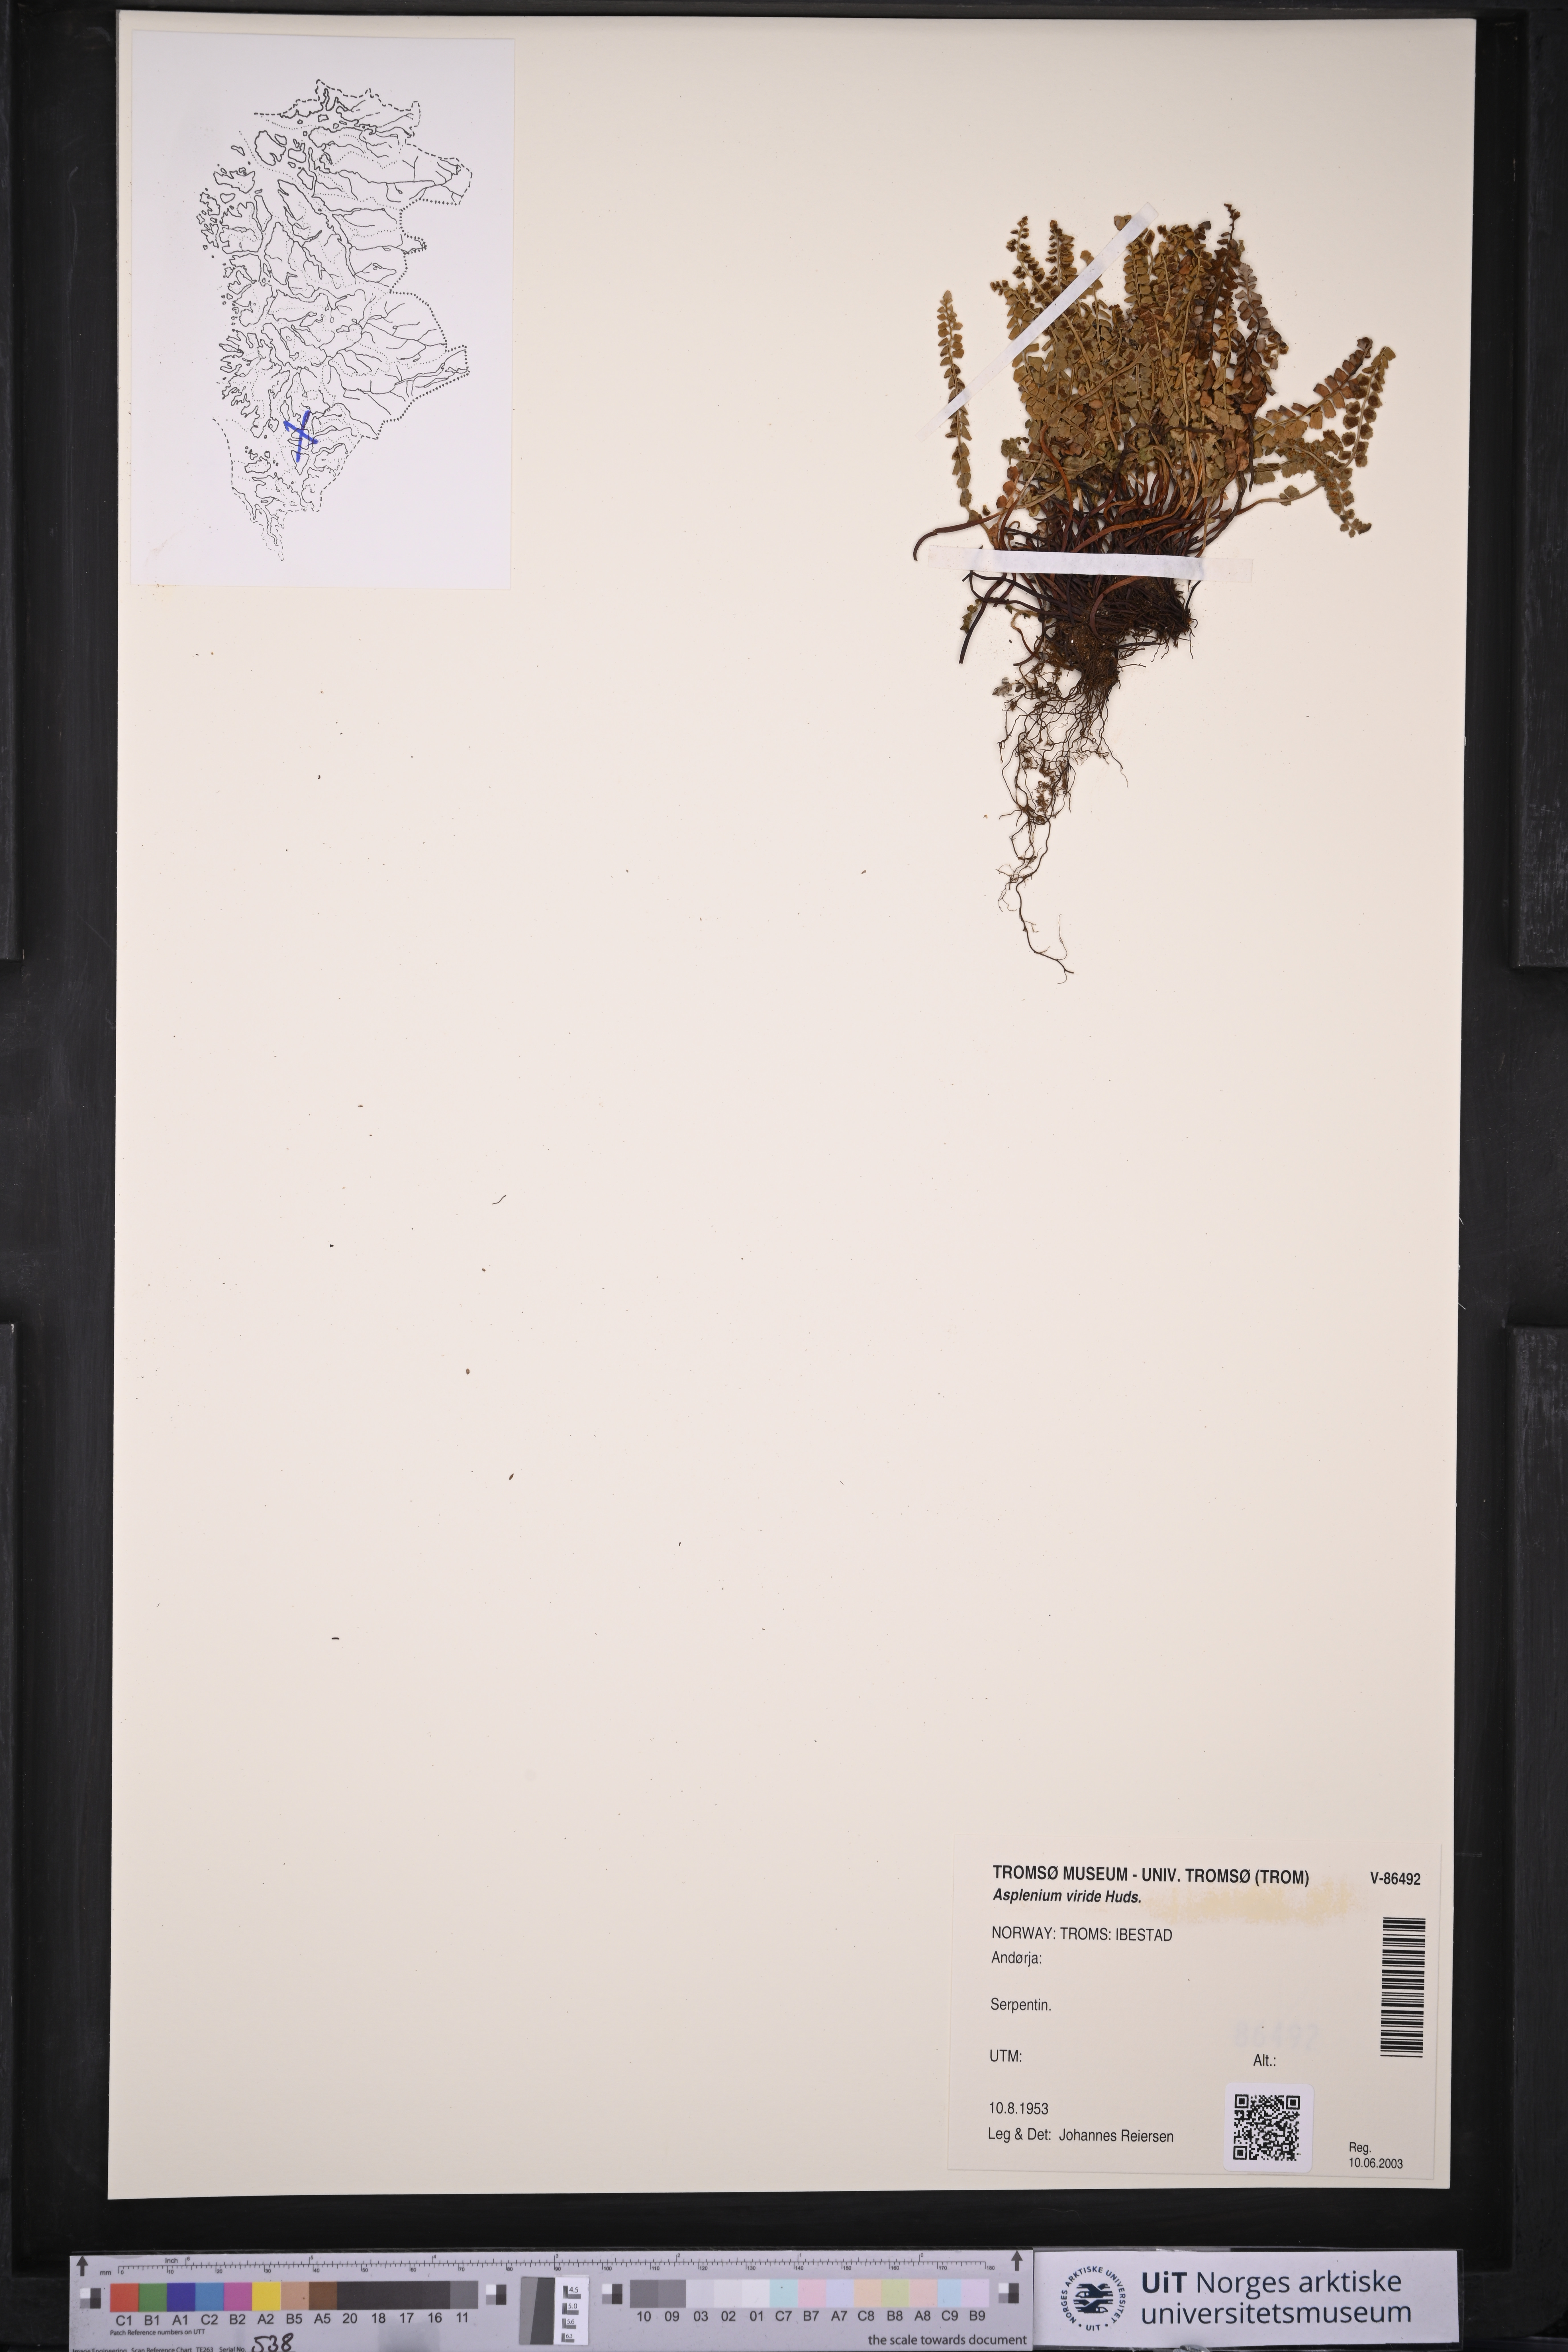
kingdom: Plantae
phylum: Tracheophyta
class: Polypodiopsida
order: Polypodiales
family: Aspleniaceae
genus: Asplenium
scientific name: Asplenium viride
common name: Green spleenwort
